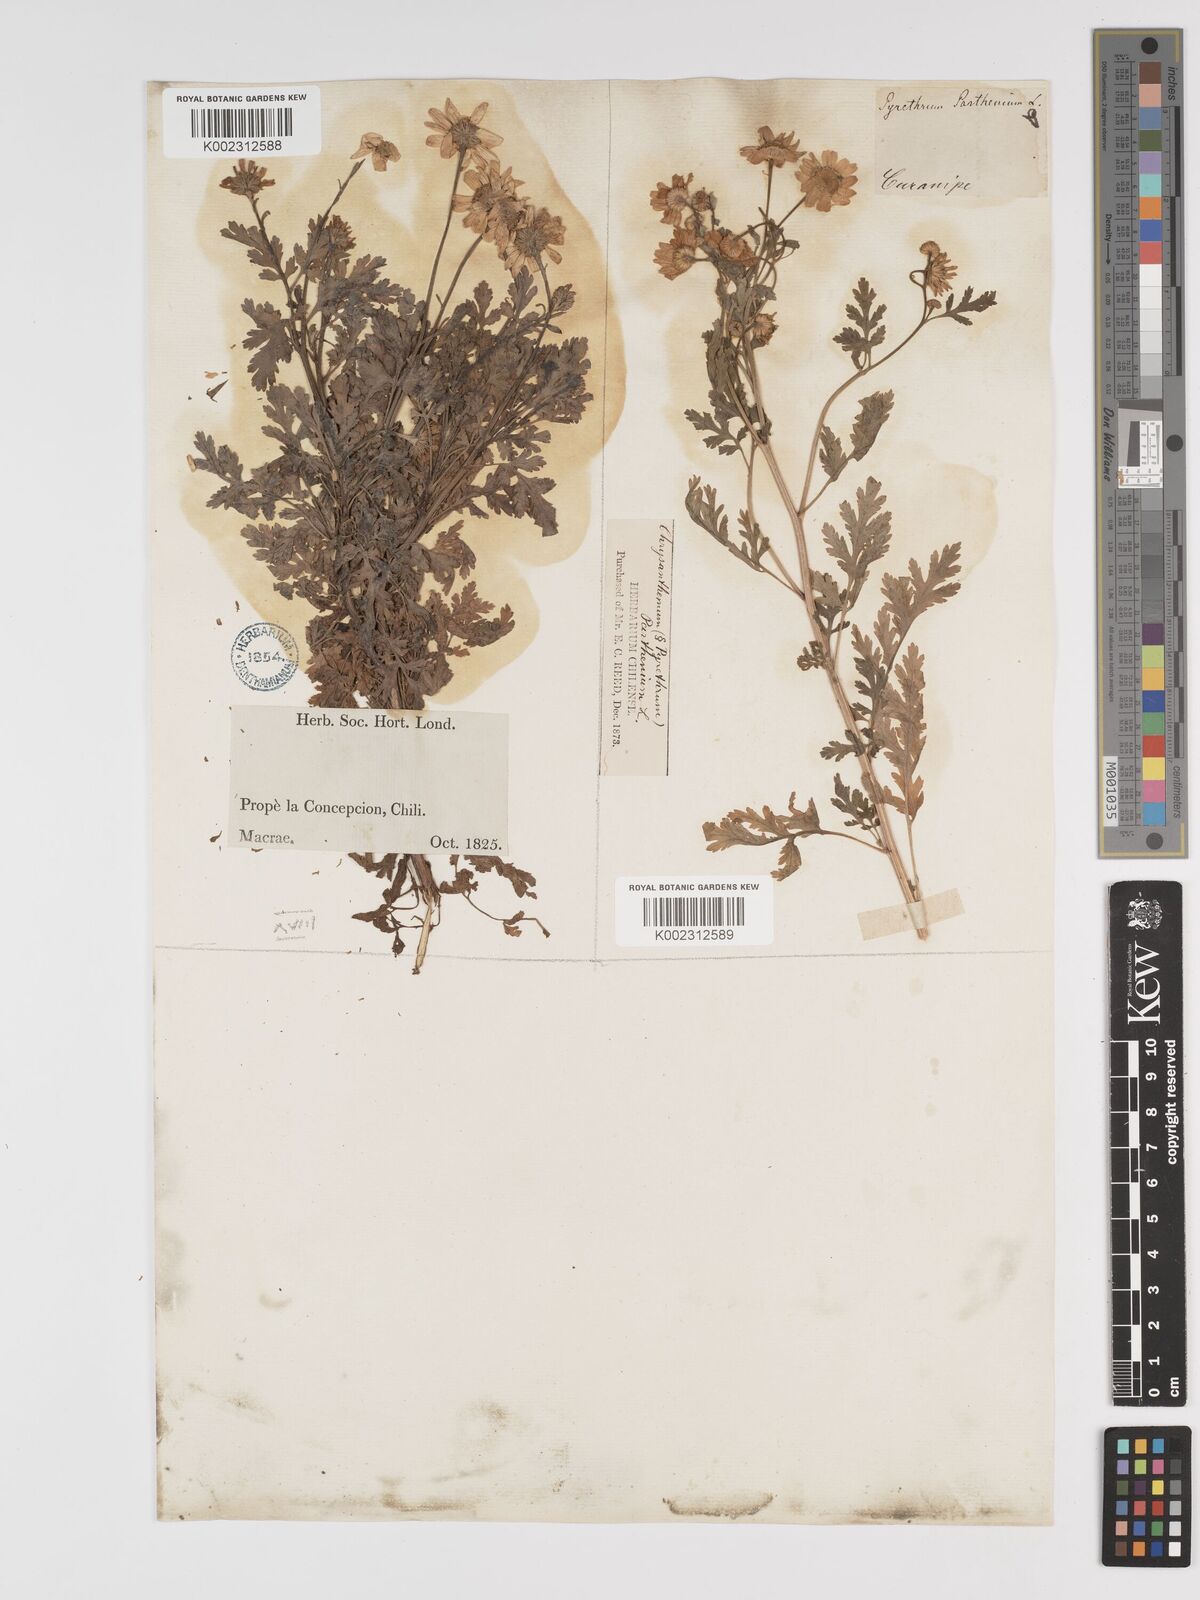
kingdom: Plantae
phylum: Tracheophyta
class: Magnoliopsida
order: Asterales
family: Asteraceae
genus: Tanacetum
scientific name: Tanacetum parthenium
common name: Feverfew
